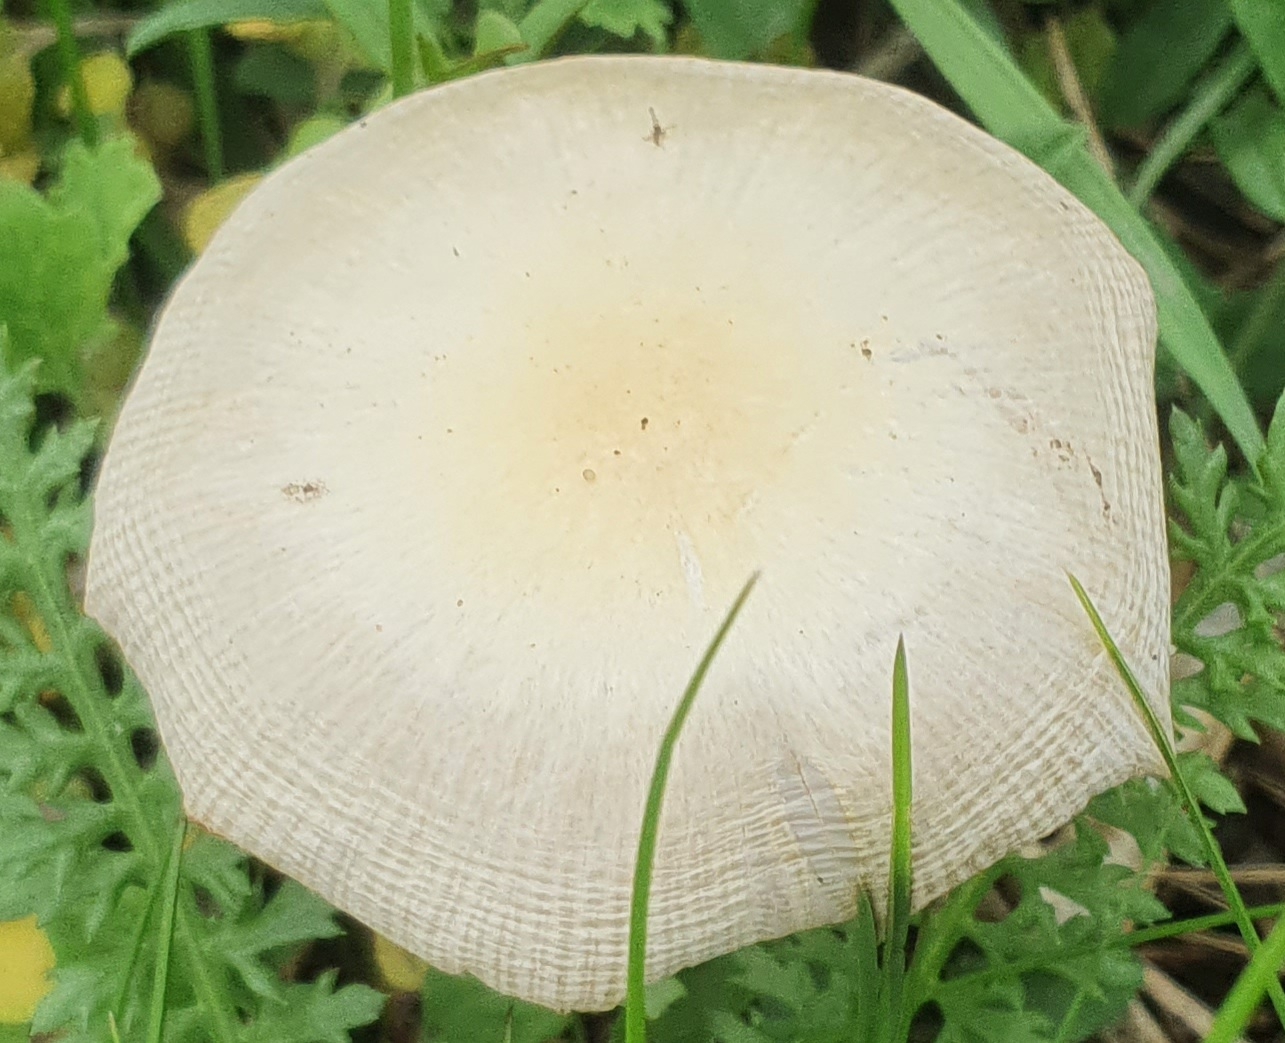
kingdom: Fungi
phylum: Basidiomycota
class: Agaricomycetes
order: Agaricales
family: Bolbitiaceae
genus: Bolbitius
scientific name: Bolbitius titubans
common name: almindelig gulhat
